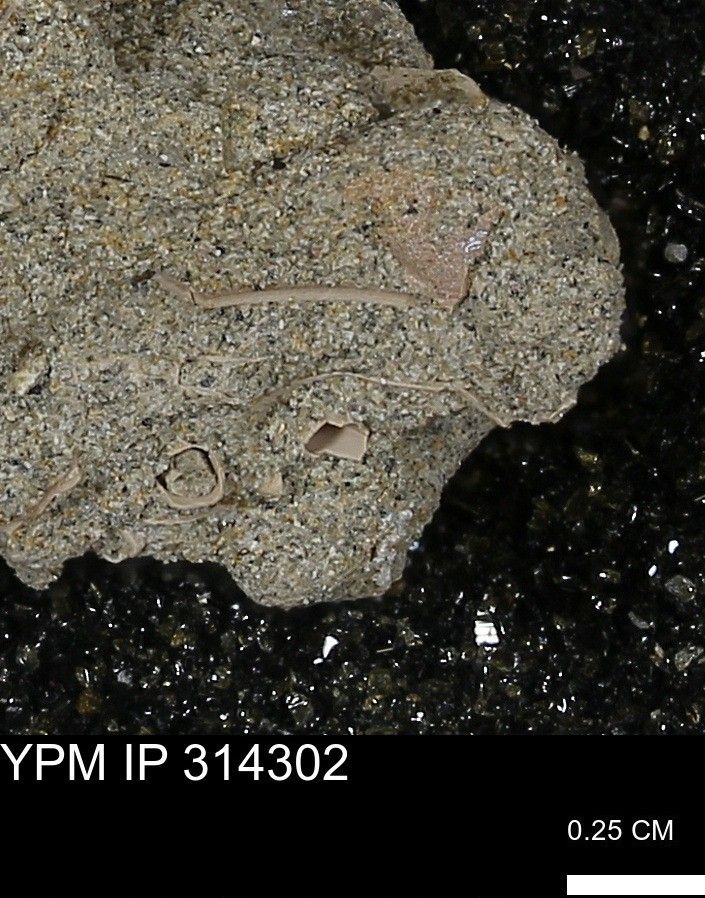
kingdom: Animalia
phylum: Mollusca
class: Scaphopoda
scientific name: Scaphopoda
